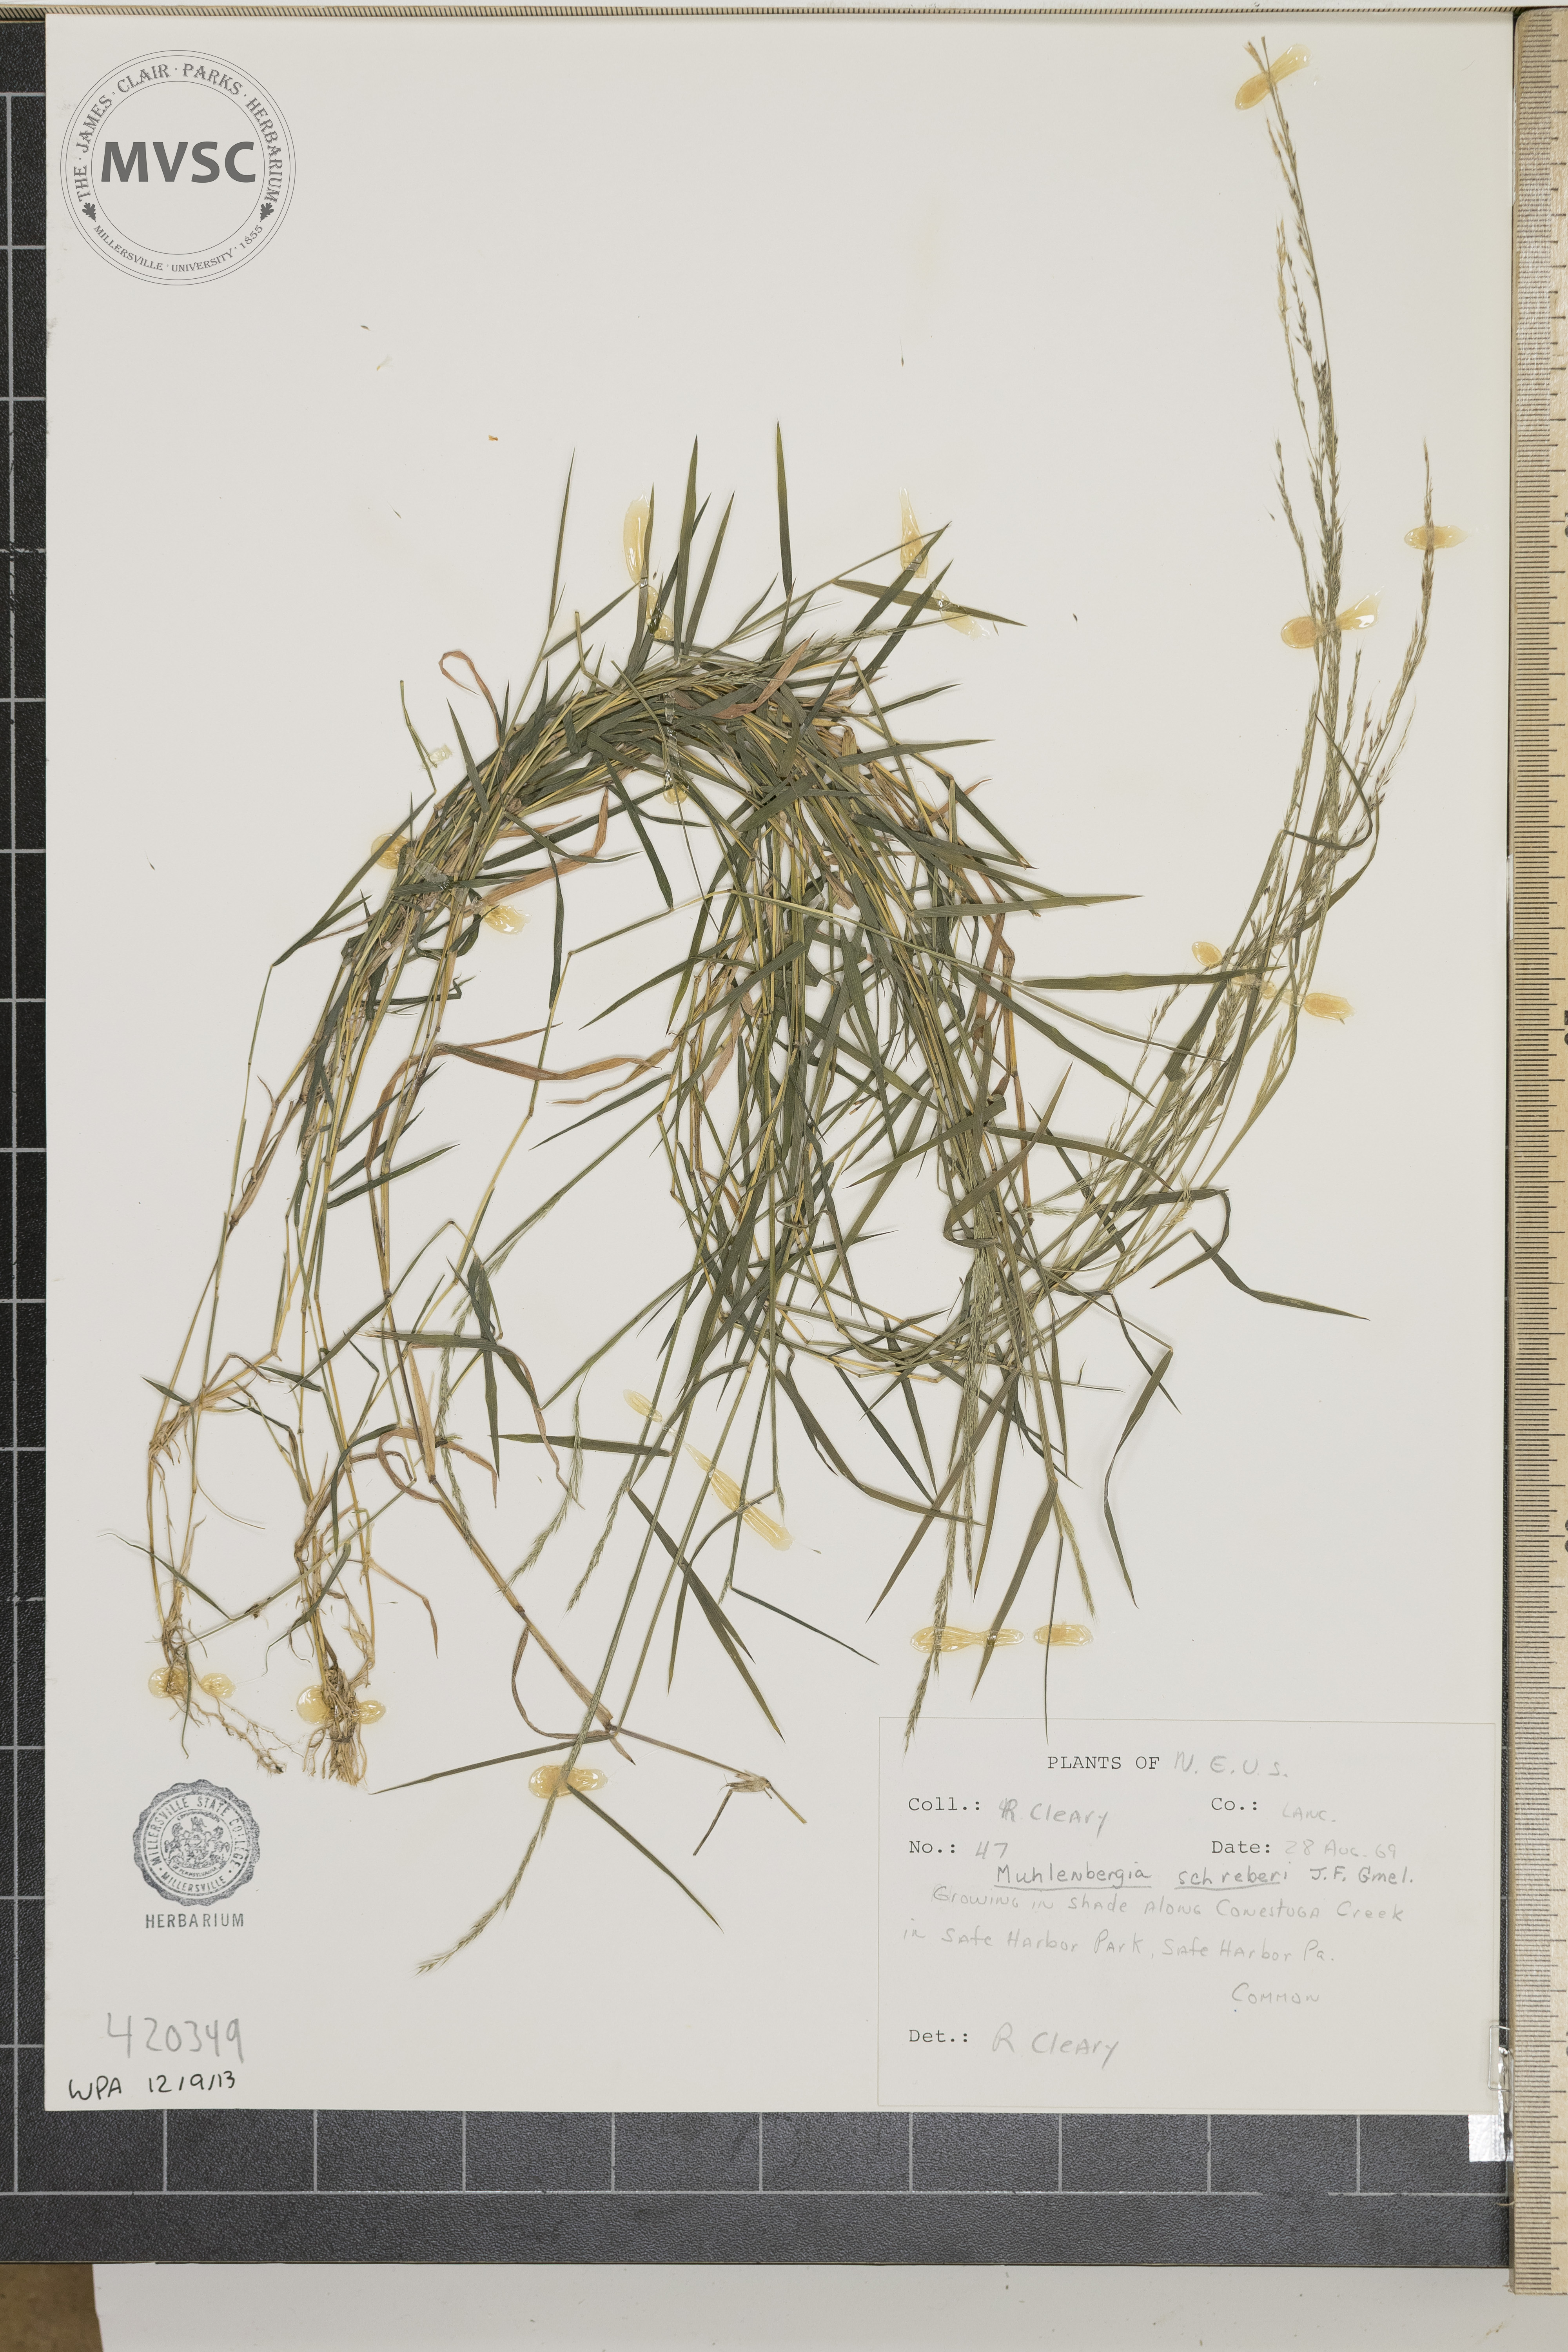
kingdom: Plantae
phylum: Tracheophyta
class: Liliopsida
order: Poales
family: Poaceae
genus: Muhlenbergia
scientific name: Muhlenbergia schreberi
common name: nimblewill
